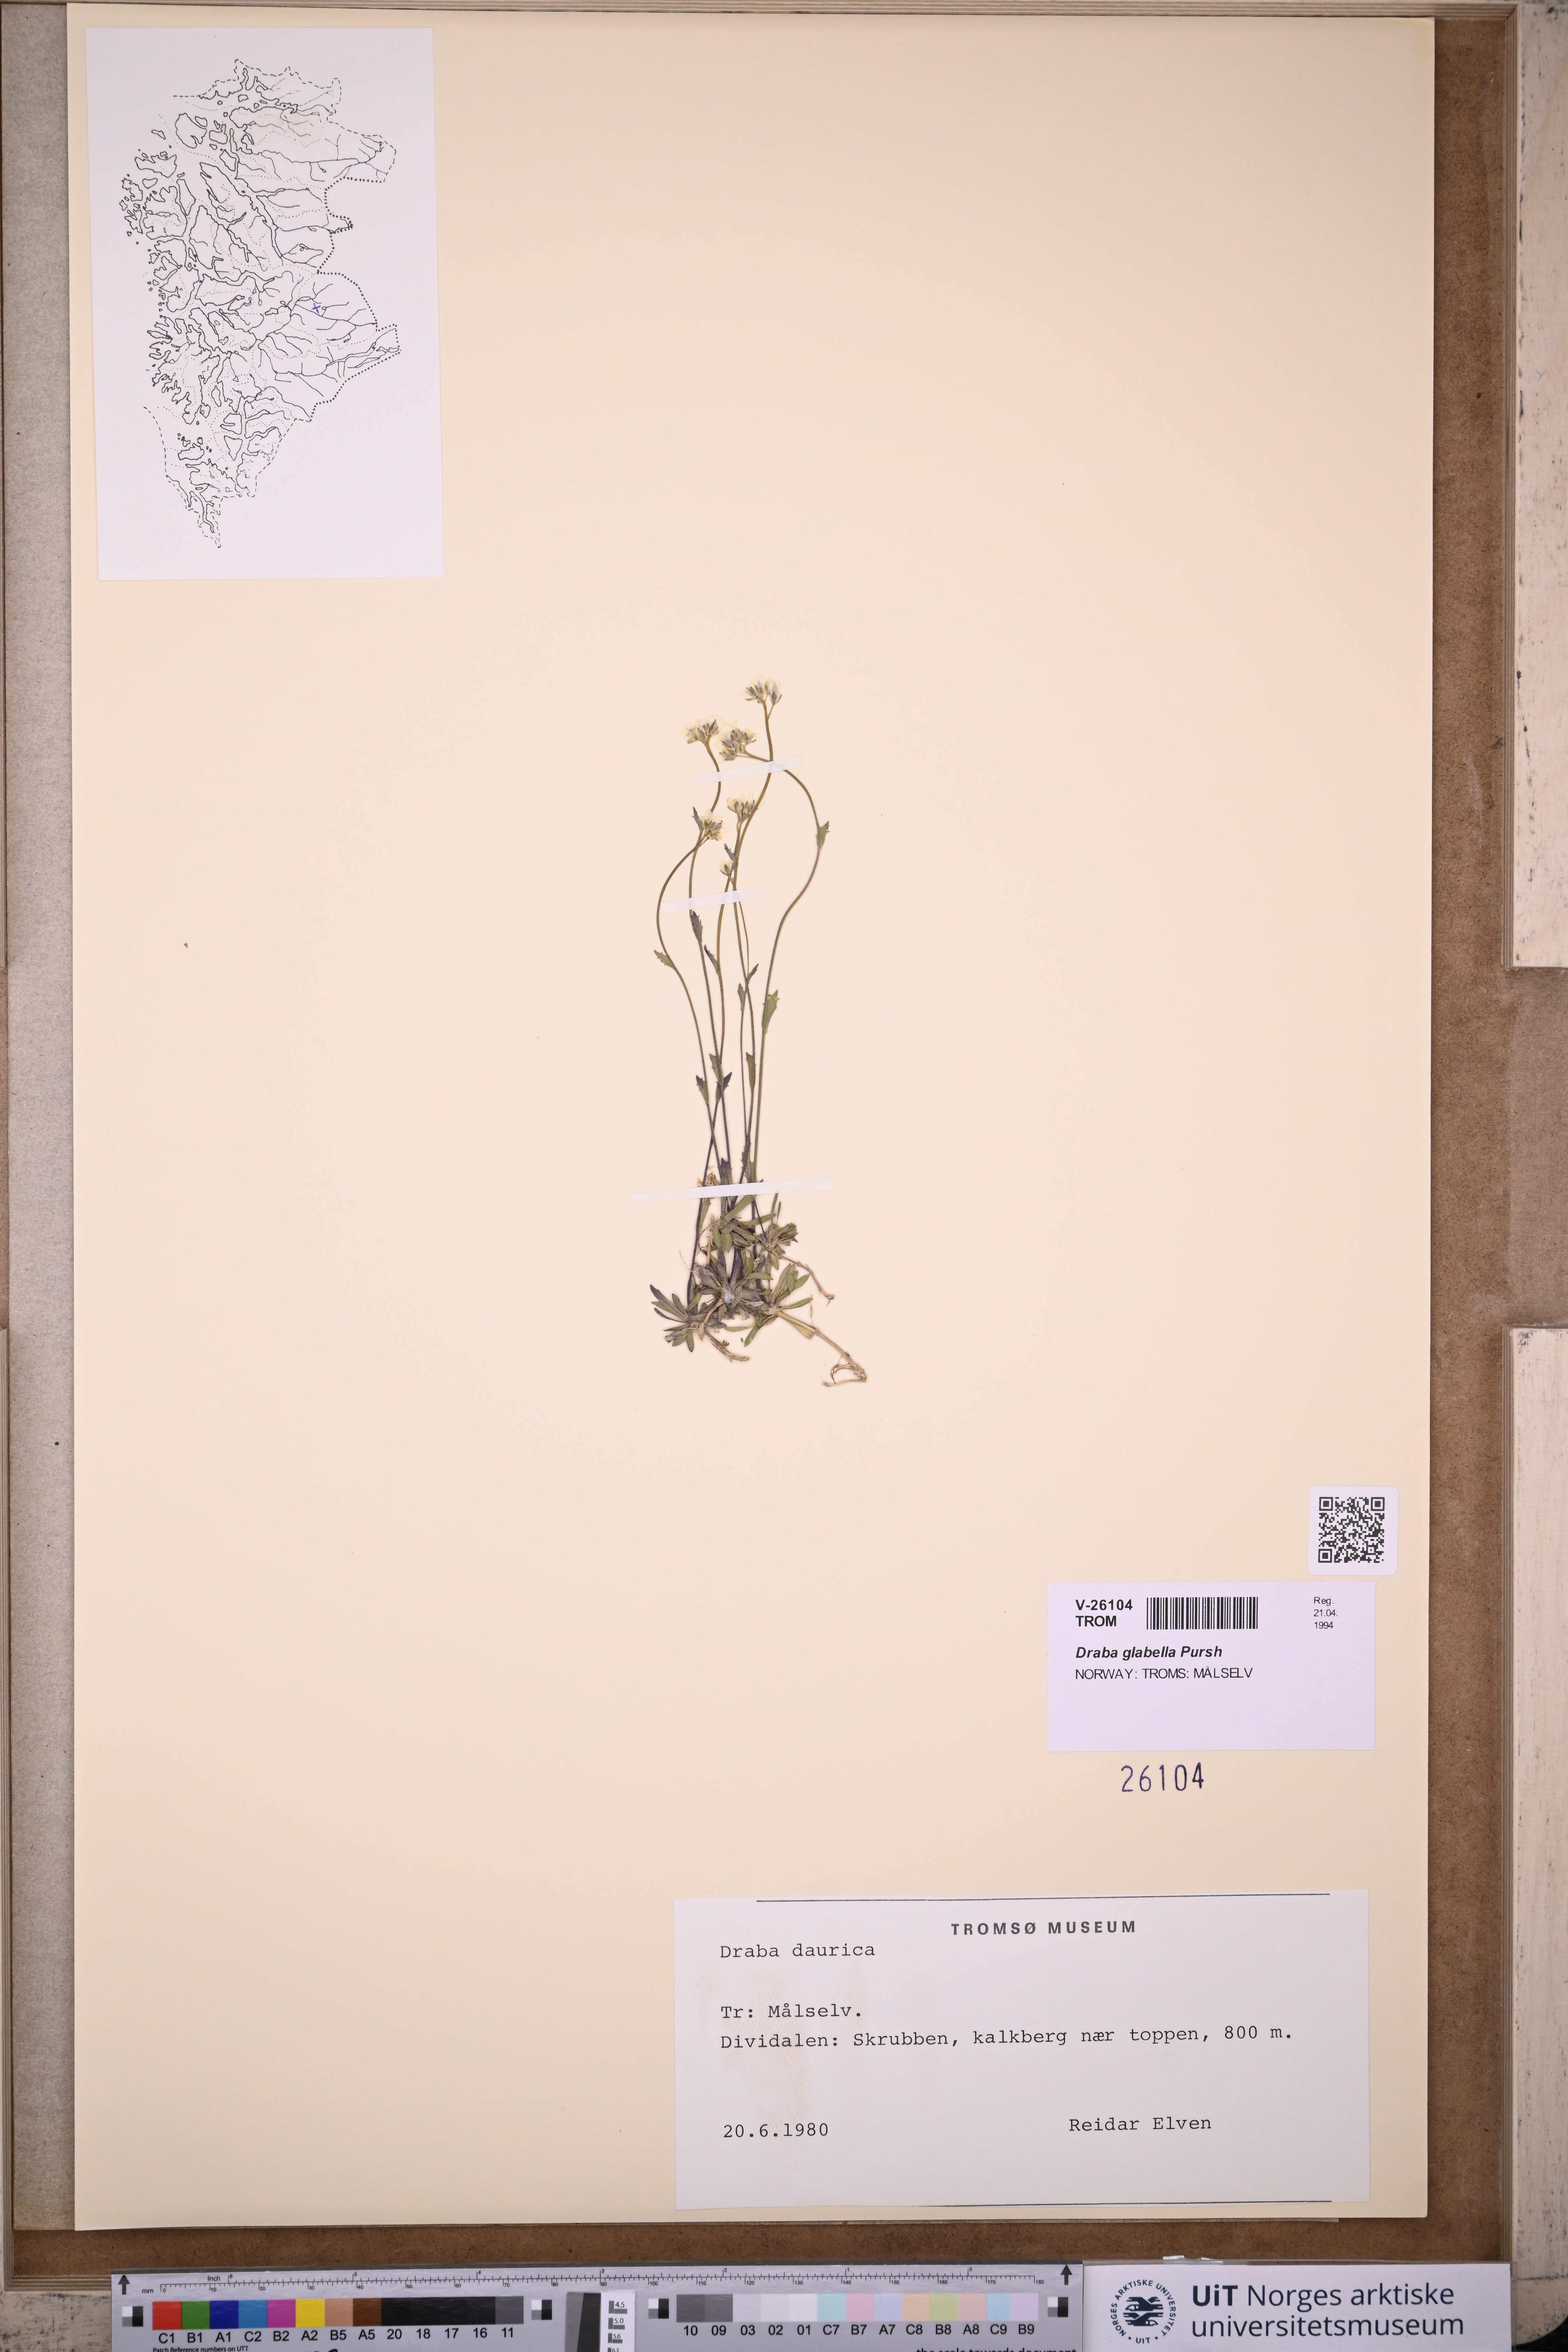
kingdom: Plantae
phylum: Tracheophyta
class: Magnoliopsida
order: Brassicales
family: Brassicaceae
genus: Draba
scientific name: Draba glabella
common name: Glaucous draba
